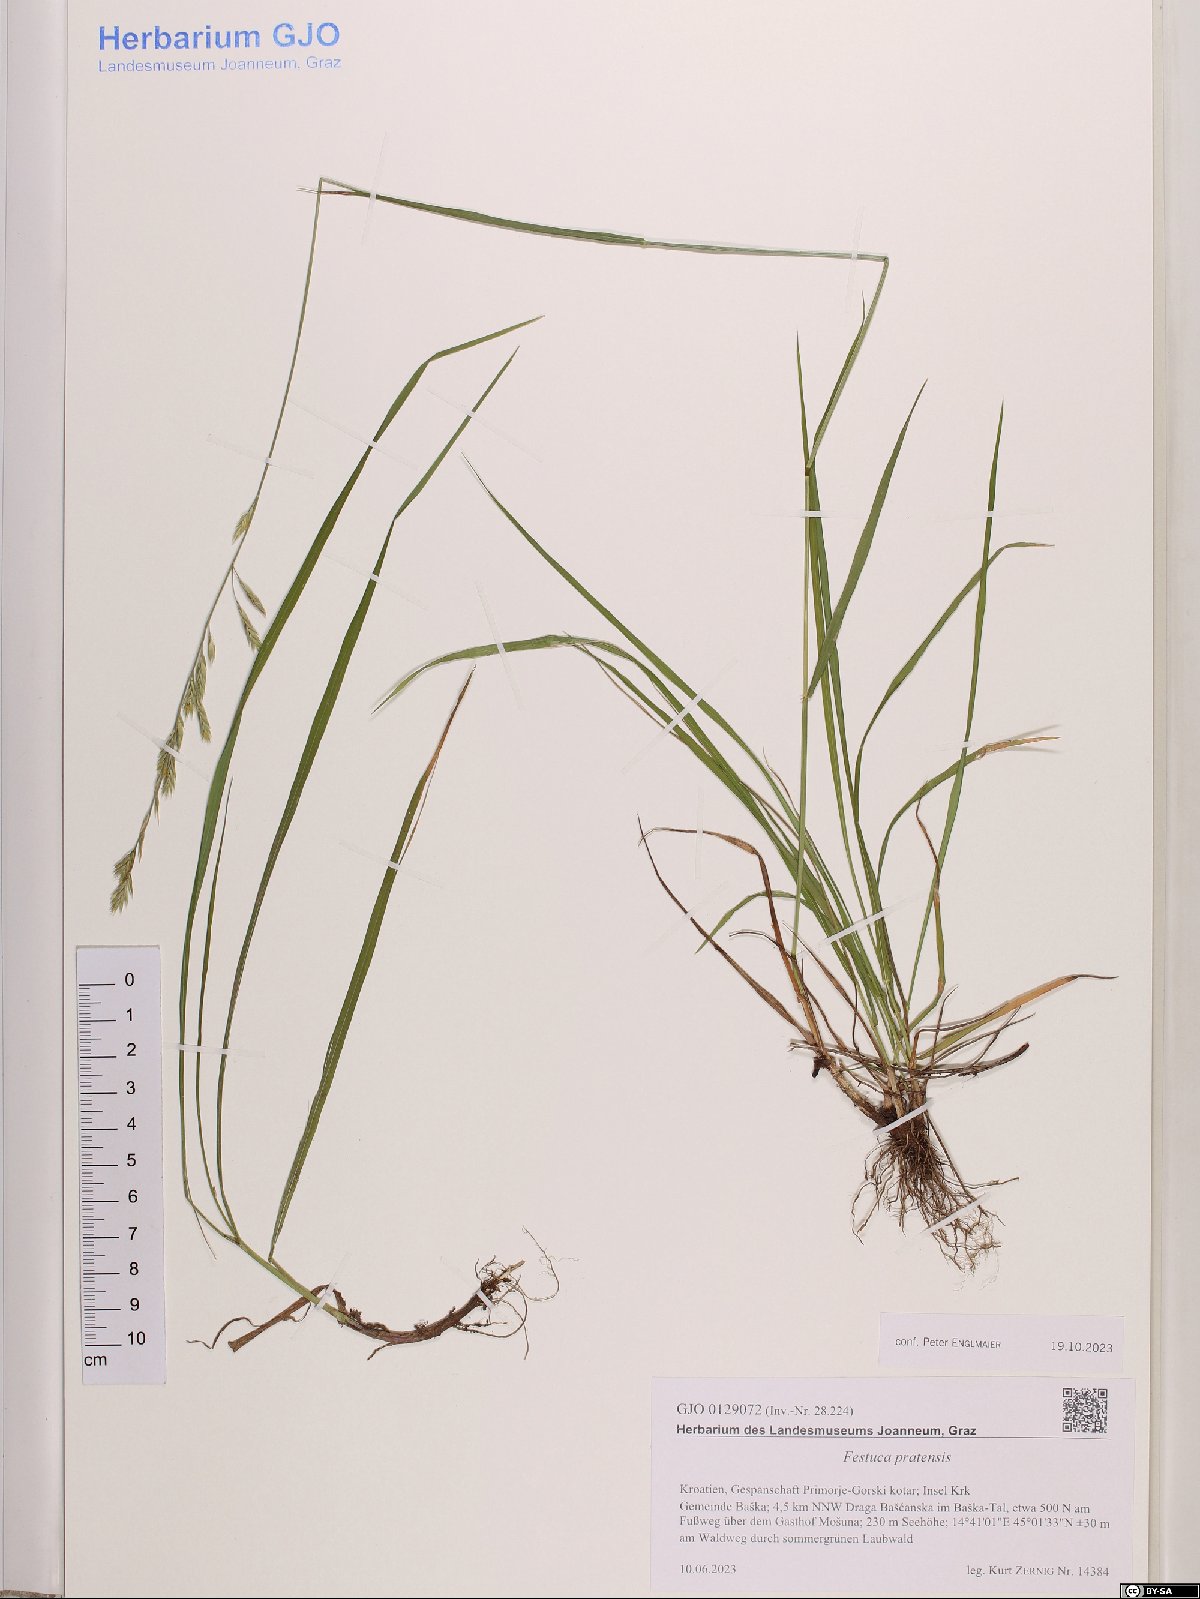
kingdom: Plantae
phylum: Tracheophyta
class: Liliopsida
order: Poales
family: Poaceae
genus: Lolium
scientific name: Lolium pratense
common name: Dover grass
